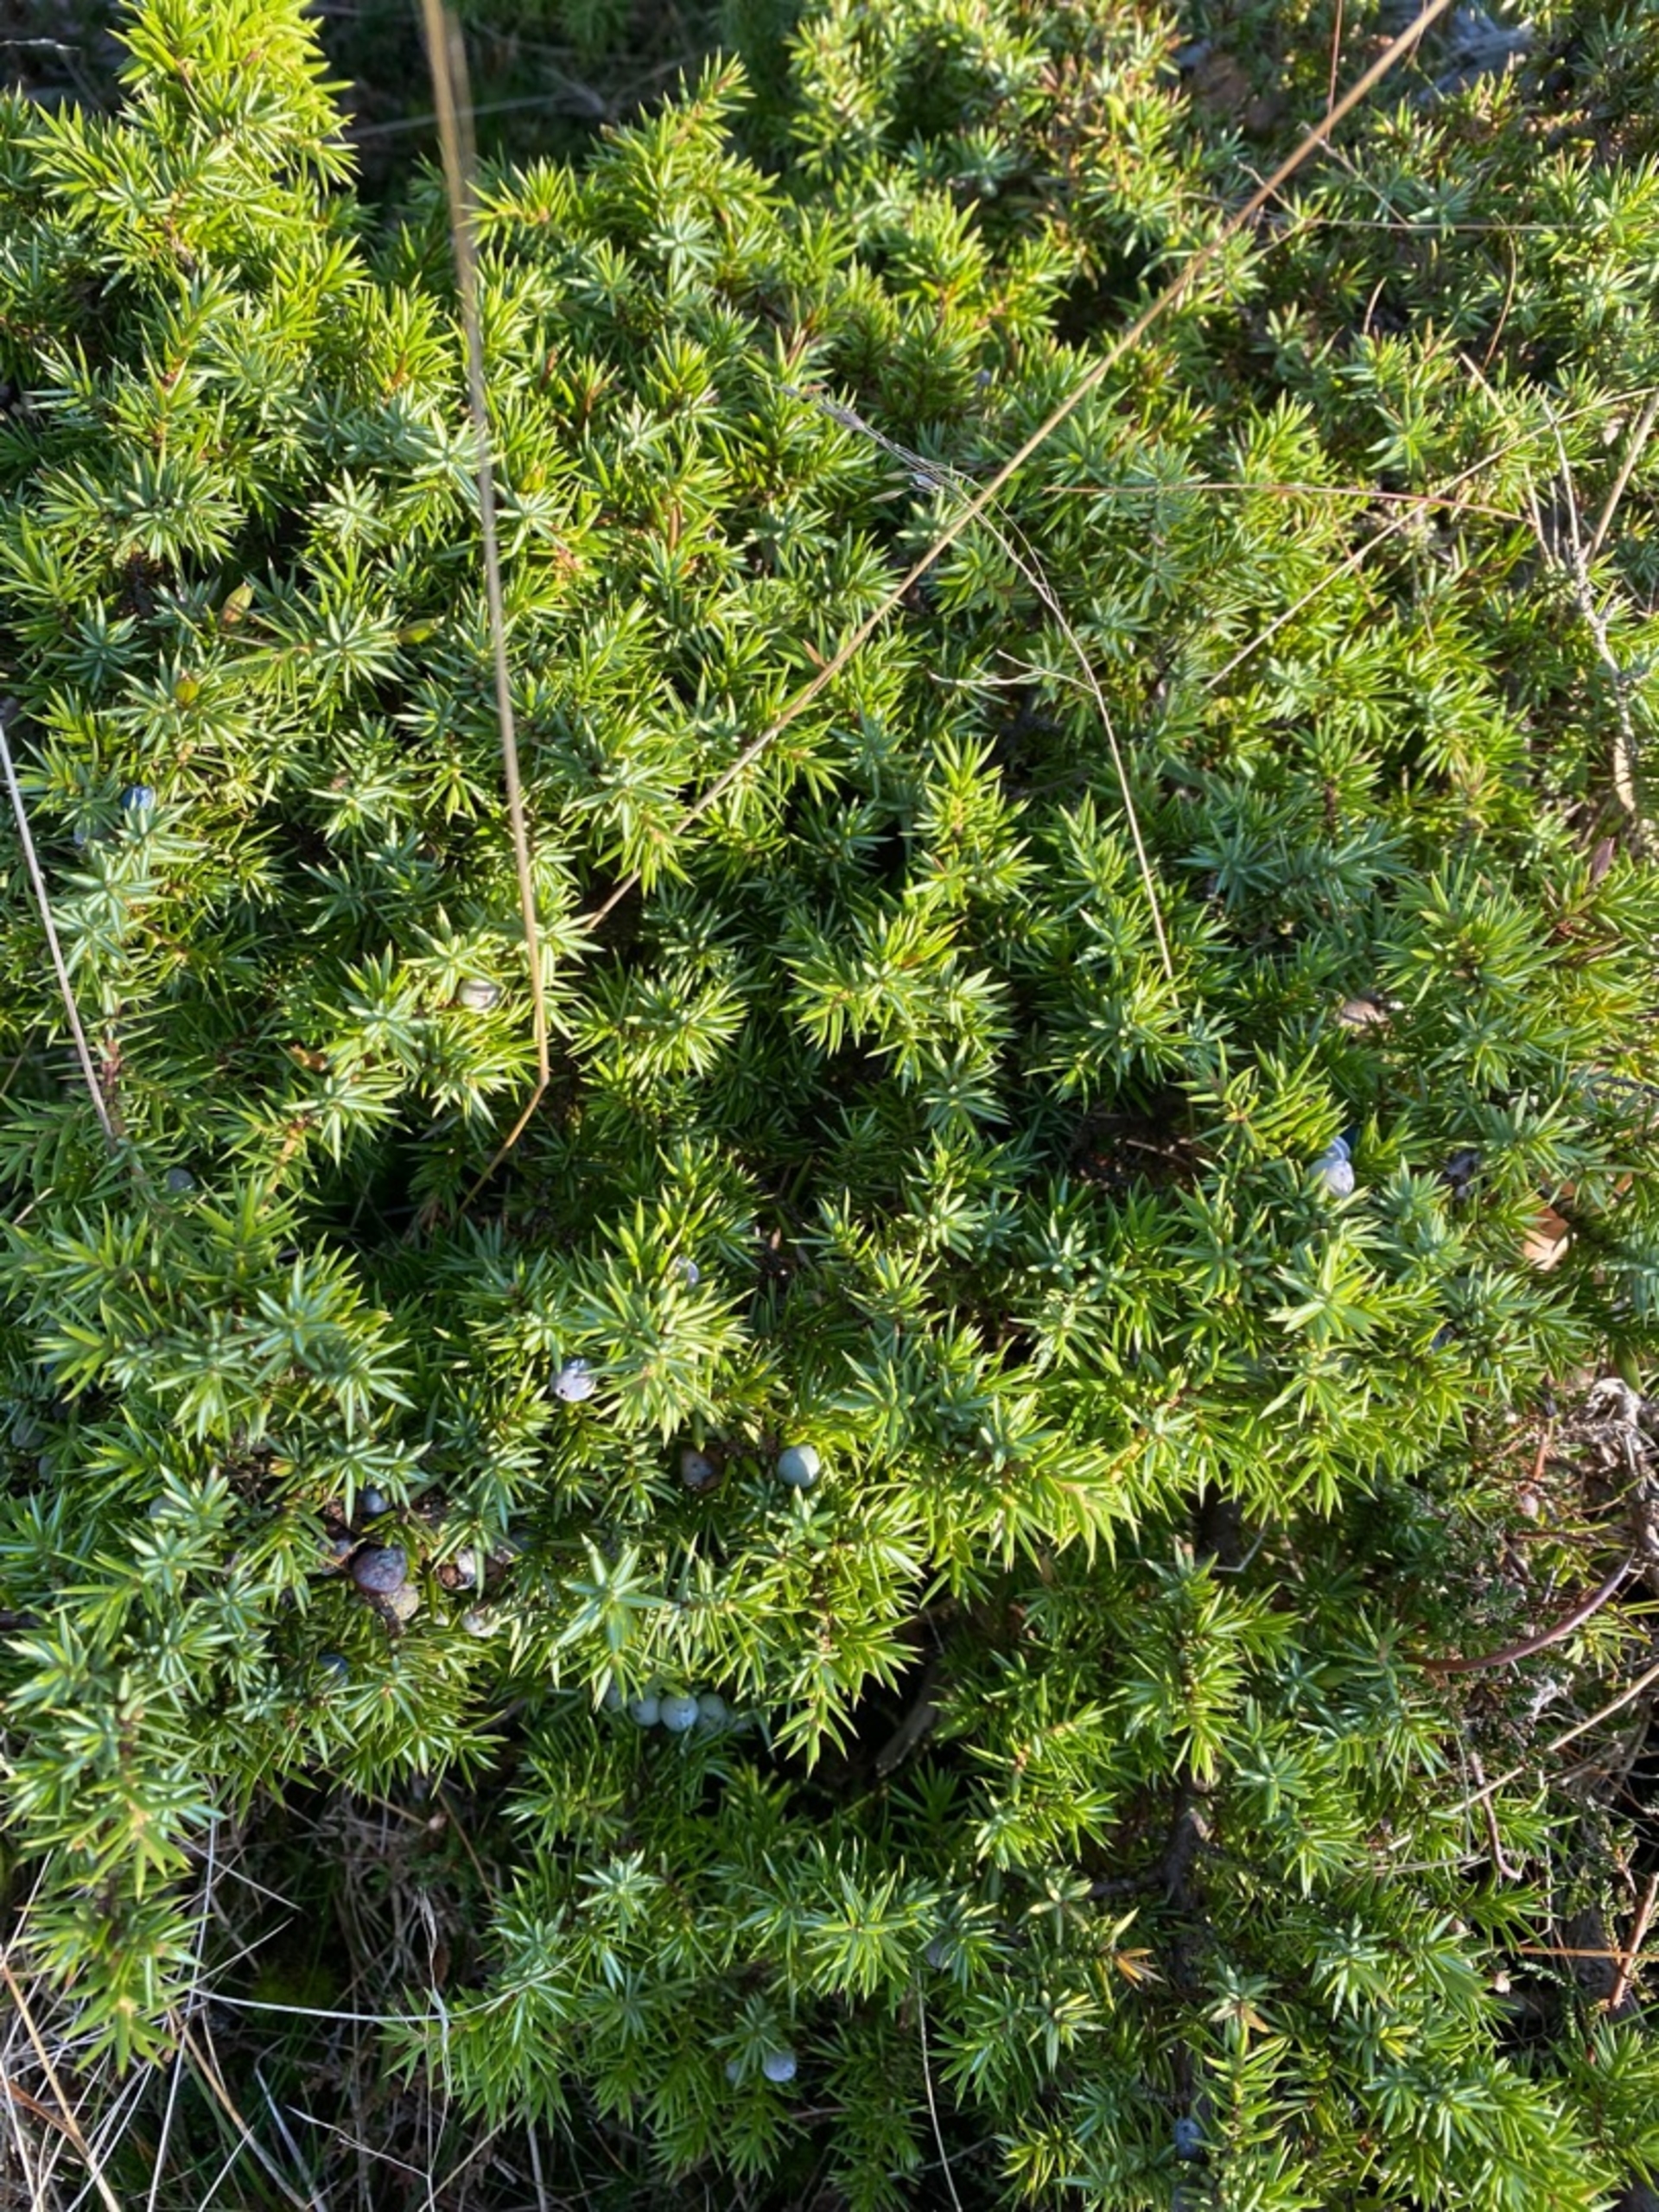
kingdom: Plantae
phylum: Tracheophyta
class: Pinopsida
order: Pinales
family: Cupressaceae
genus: Juniperus
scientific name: Juniperus communis
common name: Almindelig ene
